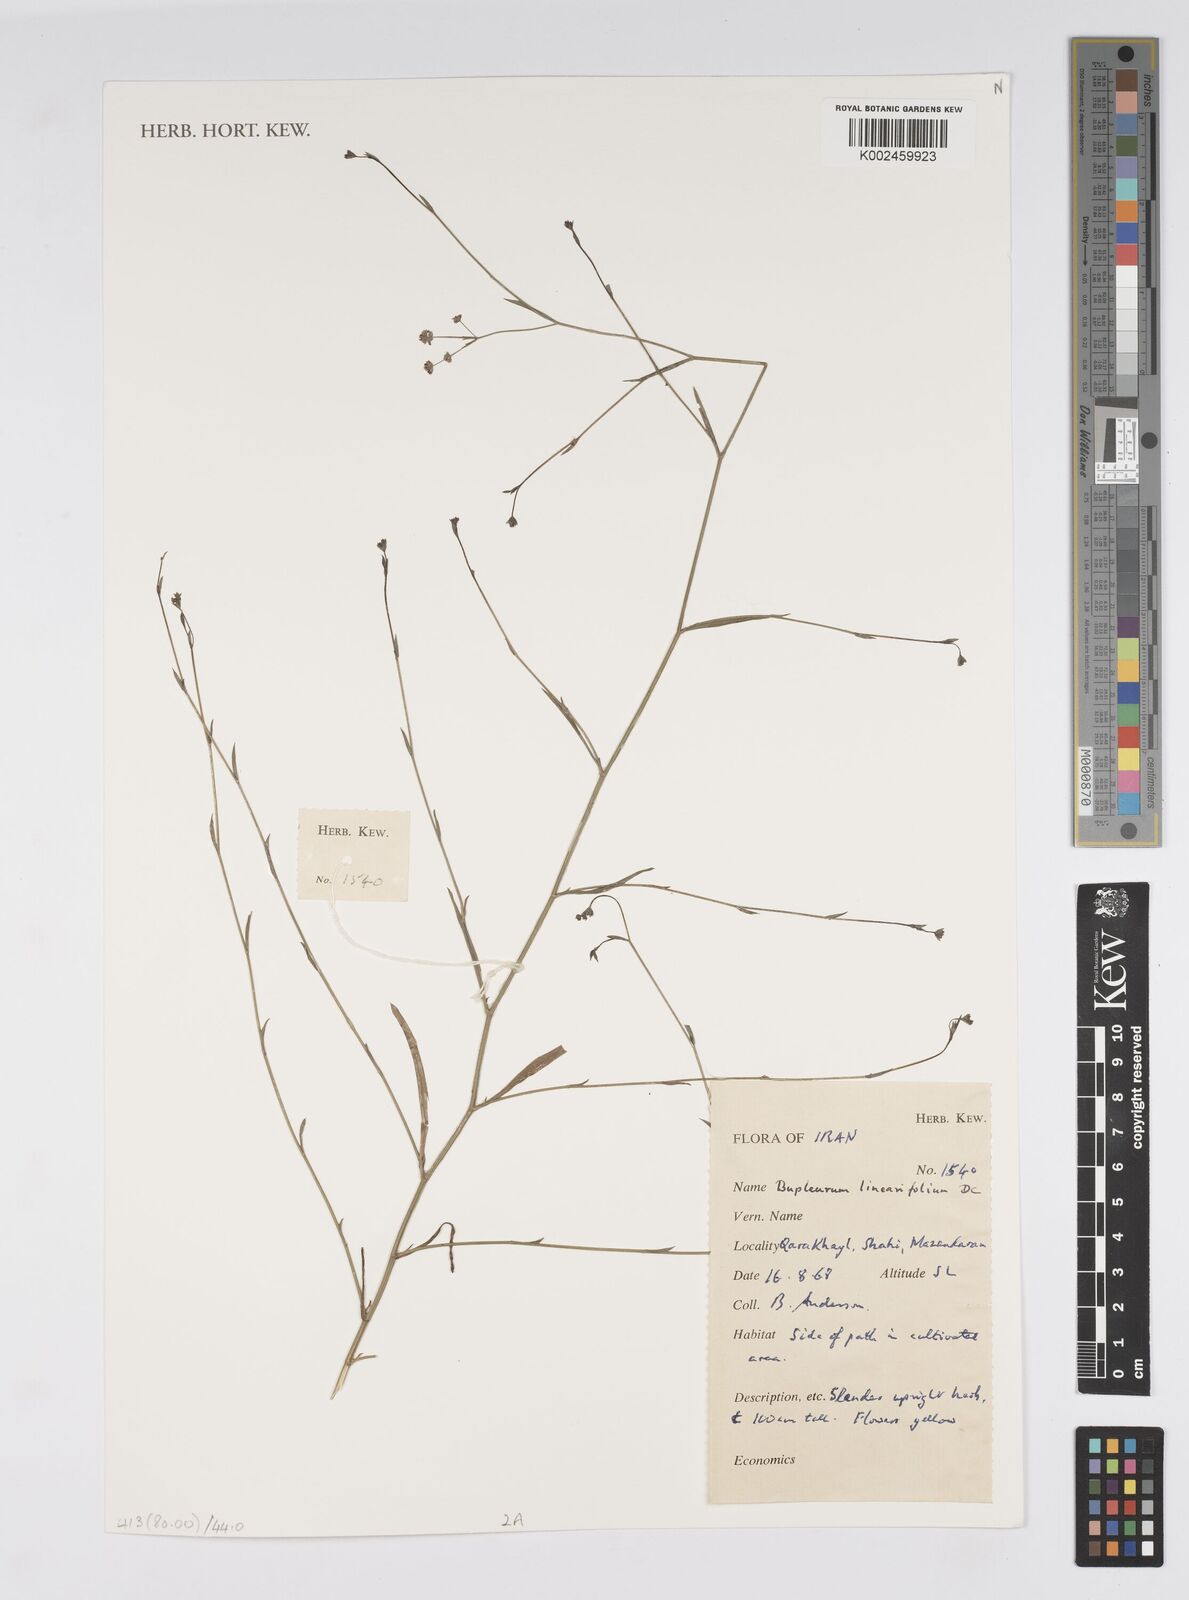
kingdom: Plantae
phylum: Tracheophyta
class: Magnoliopsida
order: Apiales
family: Apiaceae
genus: Bupleurum
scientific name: Bupleurum falcatum
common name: Sickle-leaved hare's-ear
